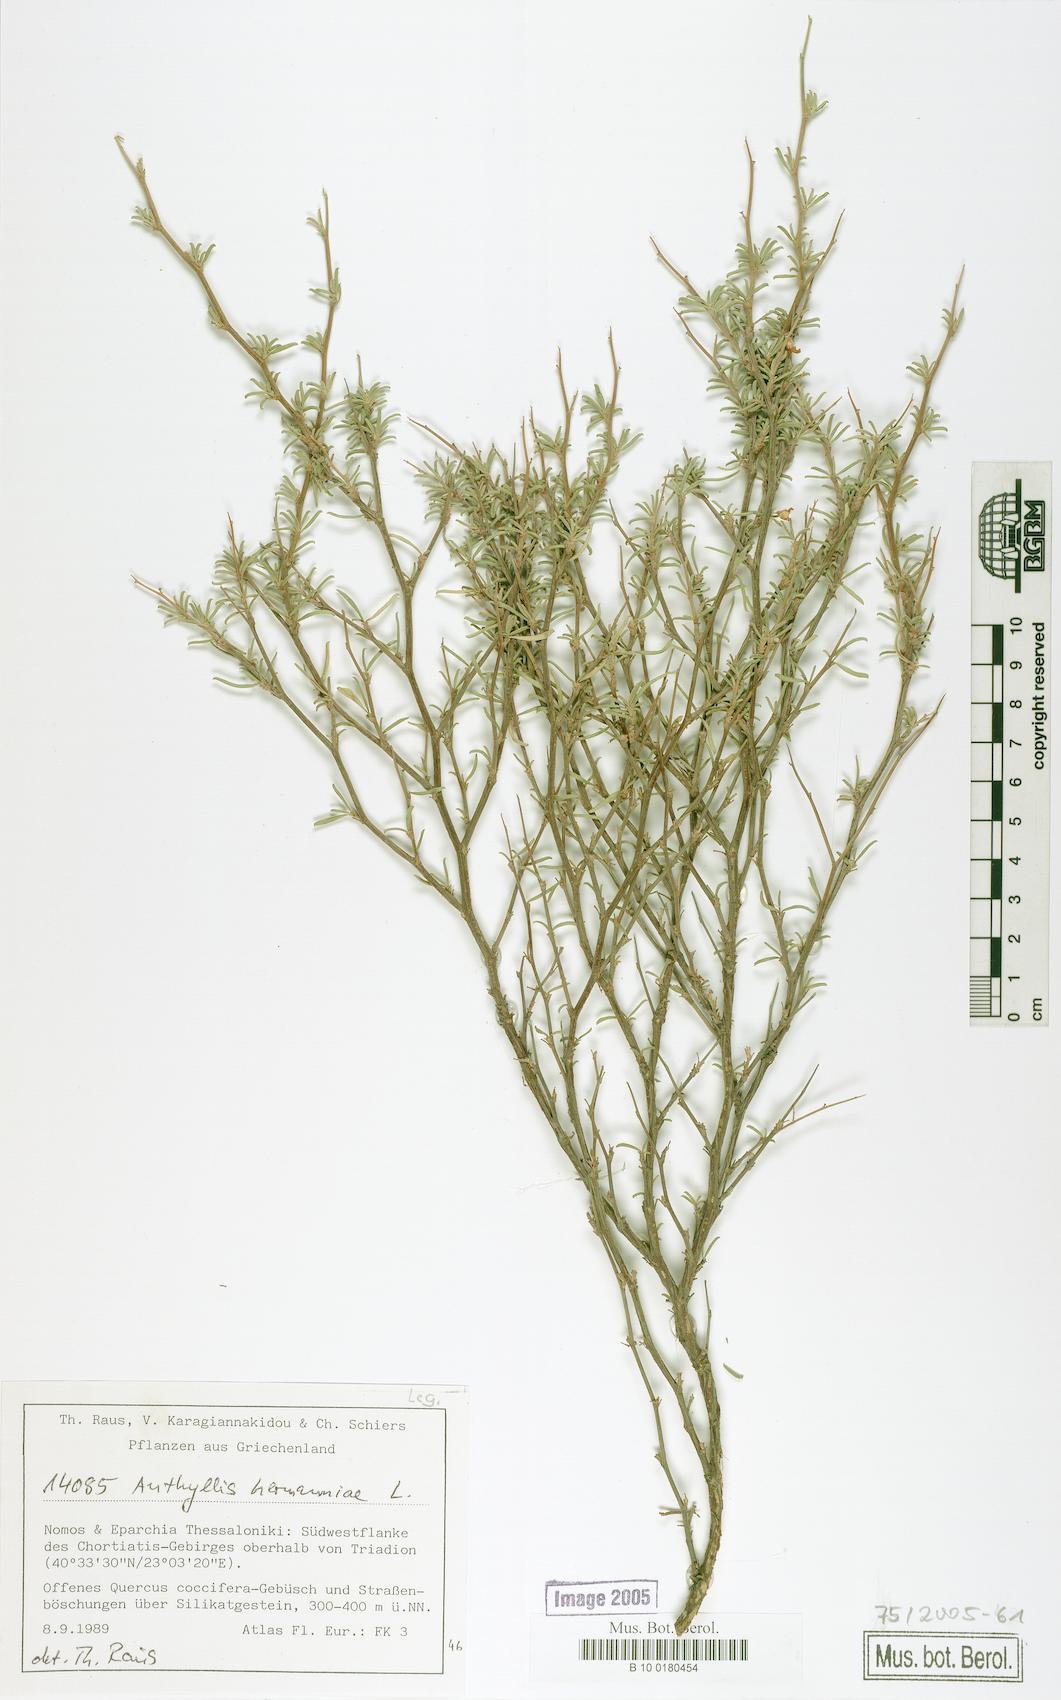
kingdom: Plantae
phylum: Tracheophyta
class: Magnoliopsida
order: Fabales
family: Fabaceae
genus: Anthyllis
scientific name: Anthyllis hermanniae
